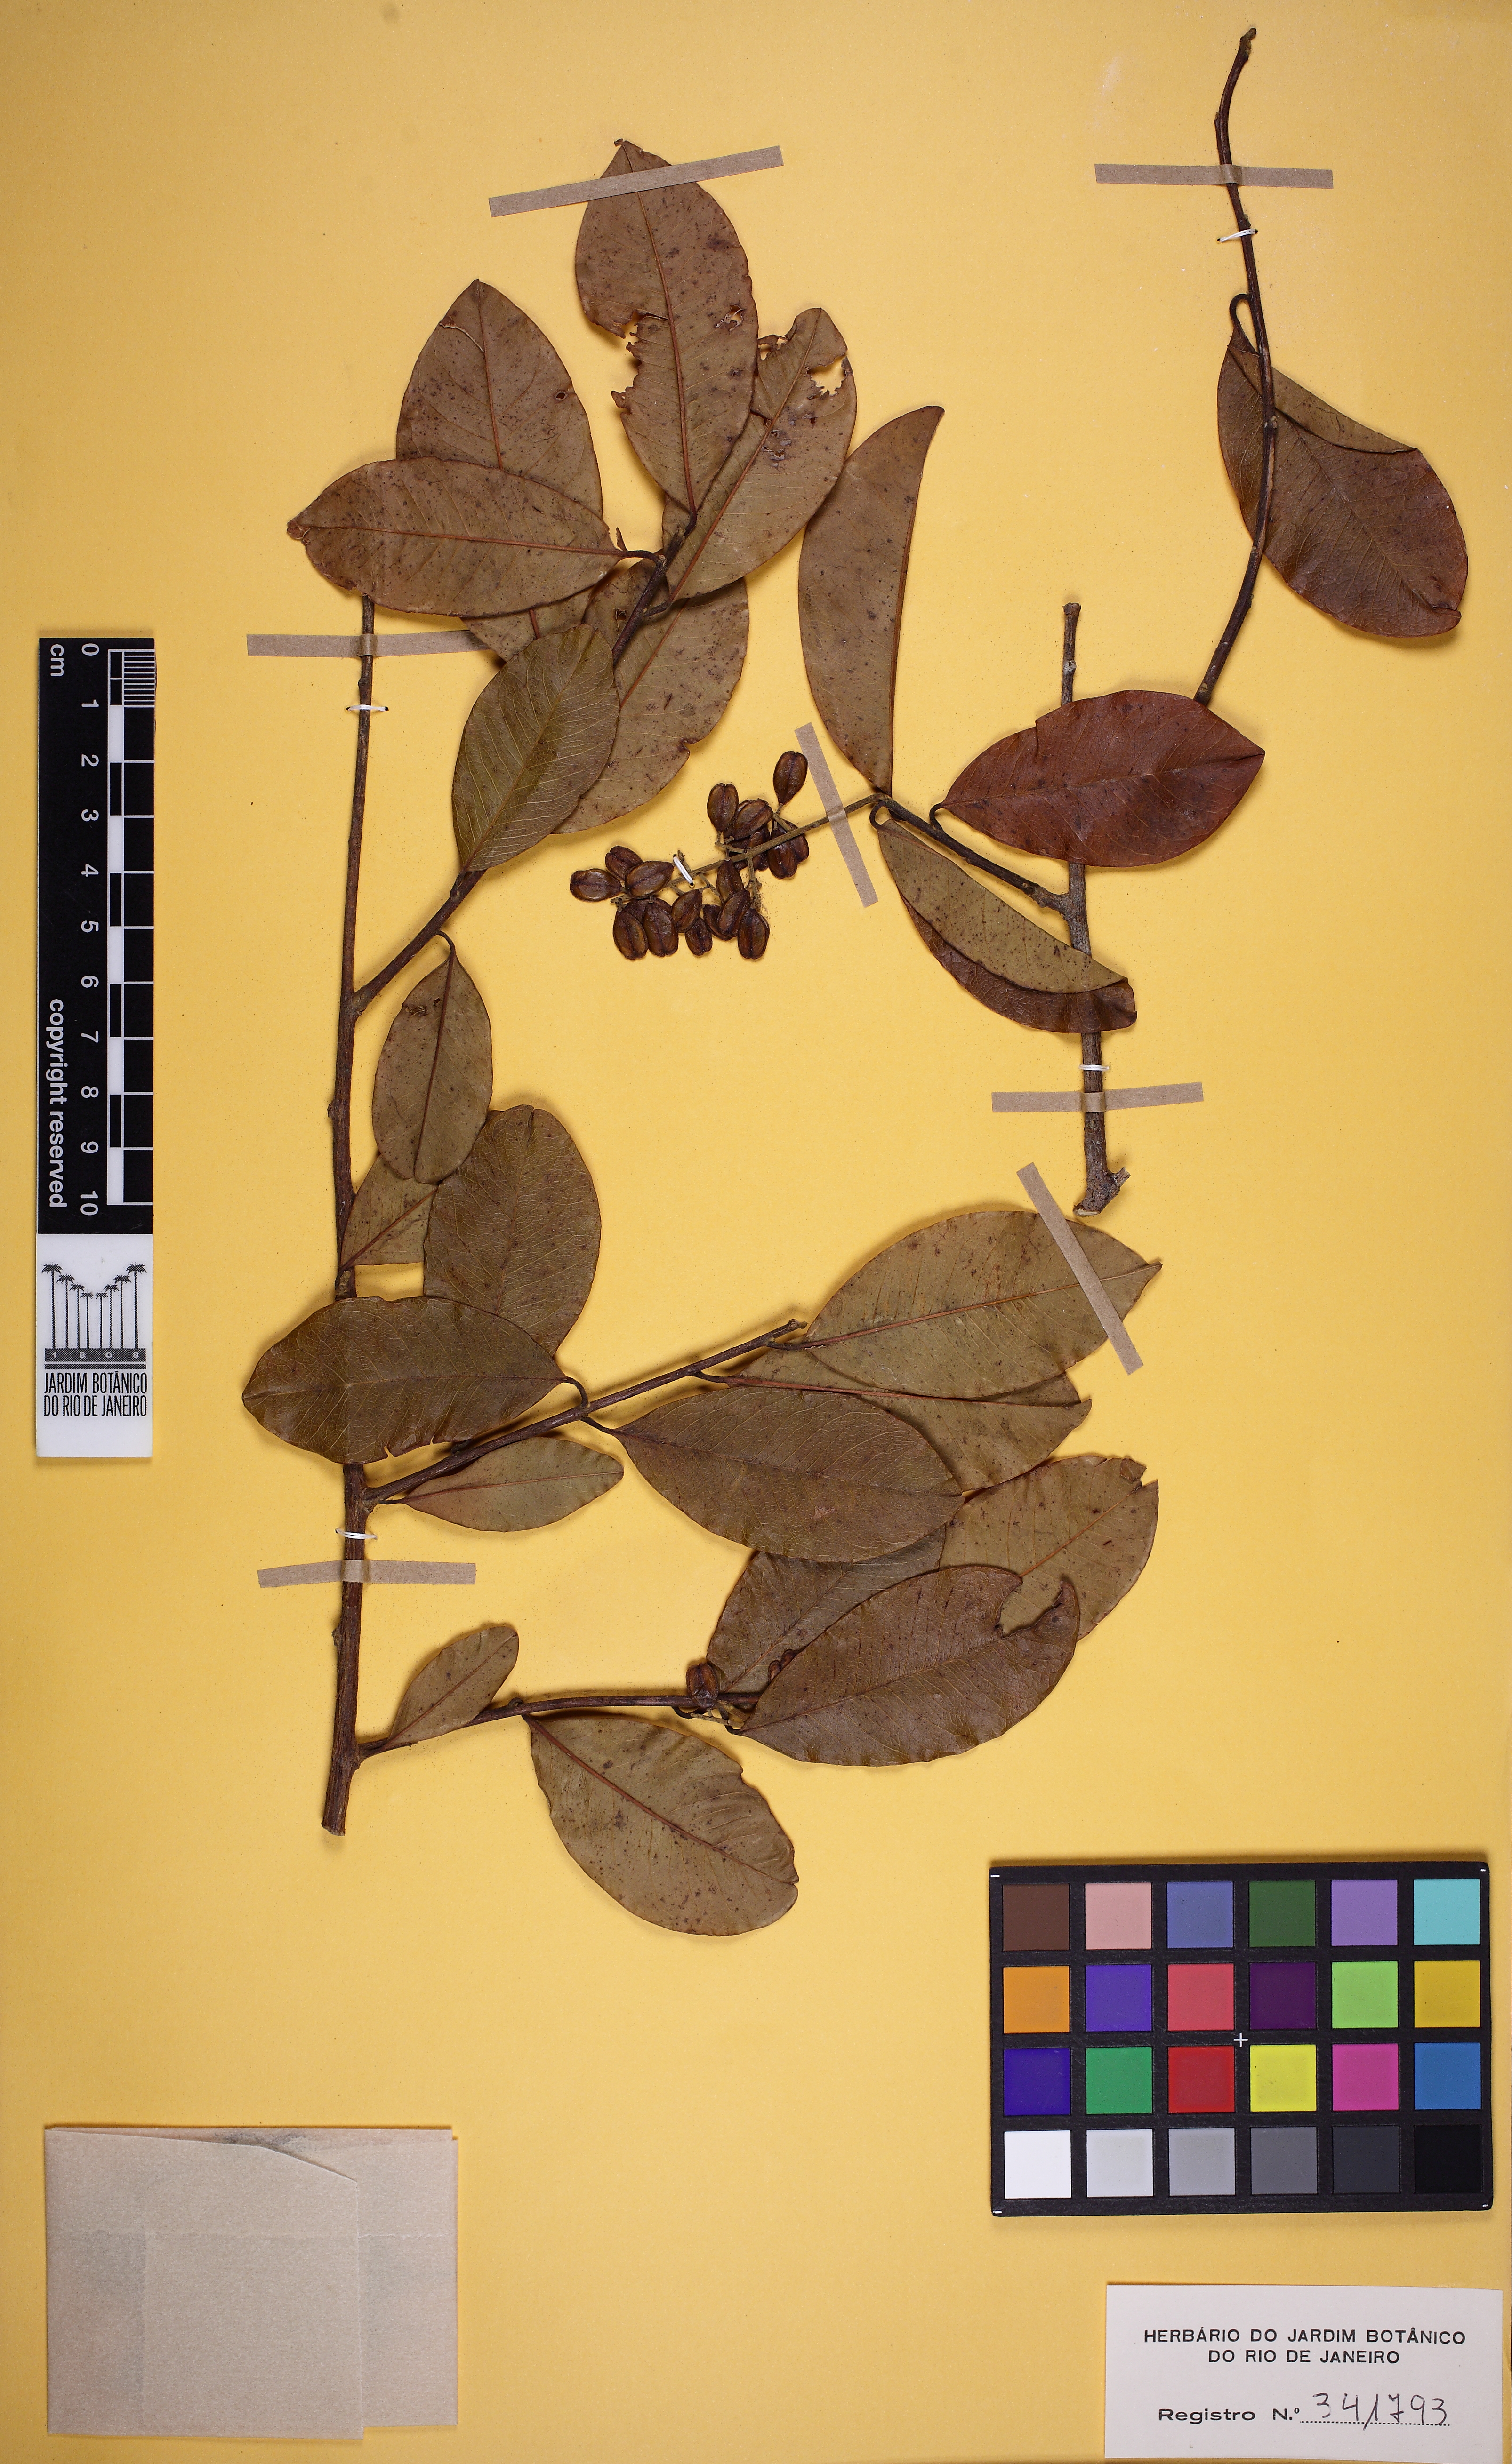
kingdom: Plantae
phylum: Tracheophyta
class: Magnoliopsida
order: Fabales
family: Polygalaceae
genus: Bredemeyera
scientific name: Bredemeyera divaricata
